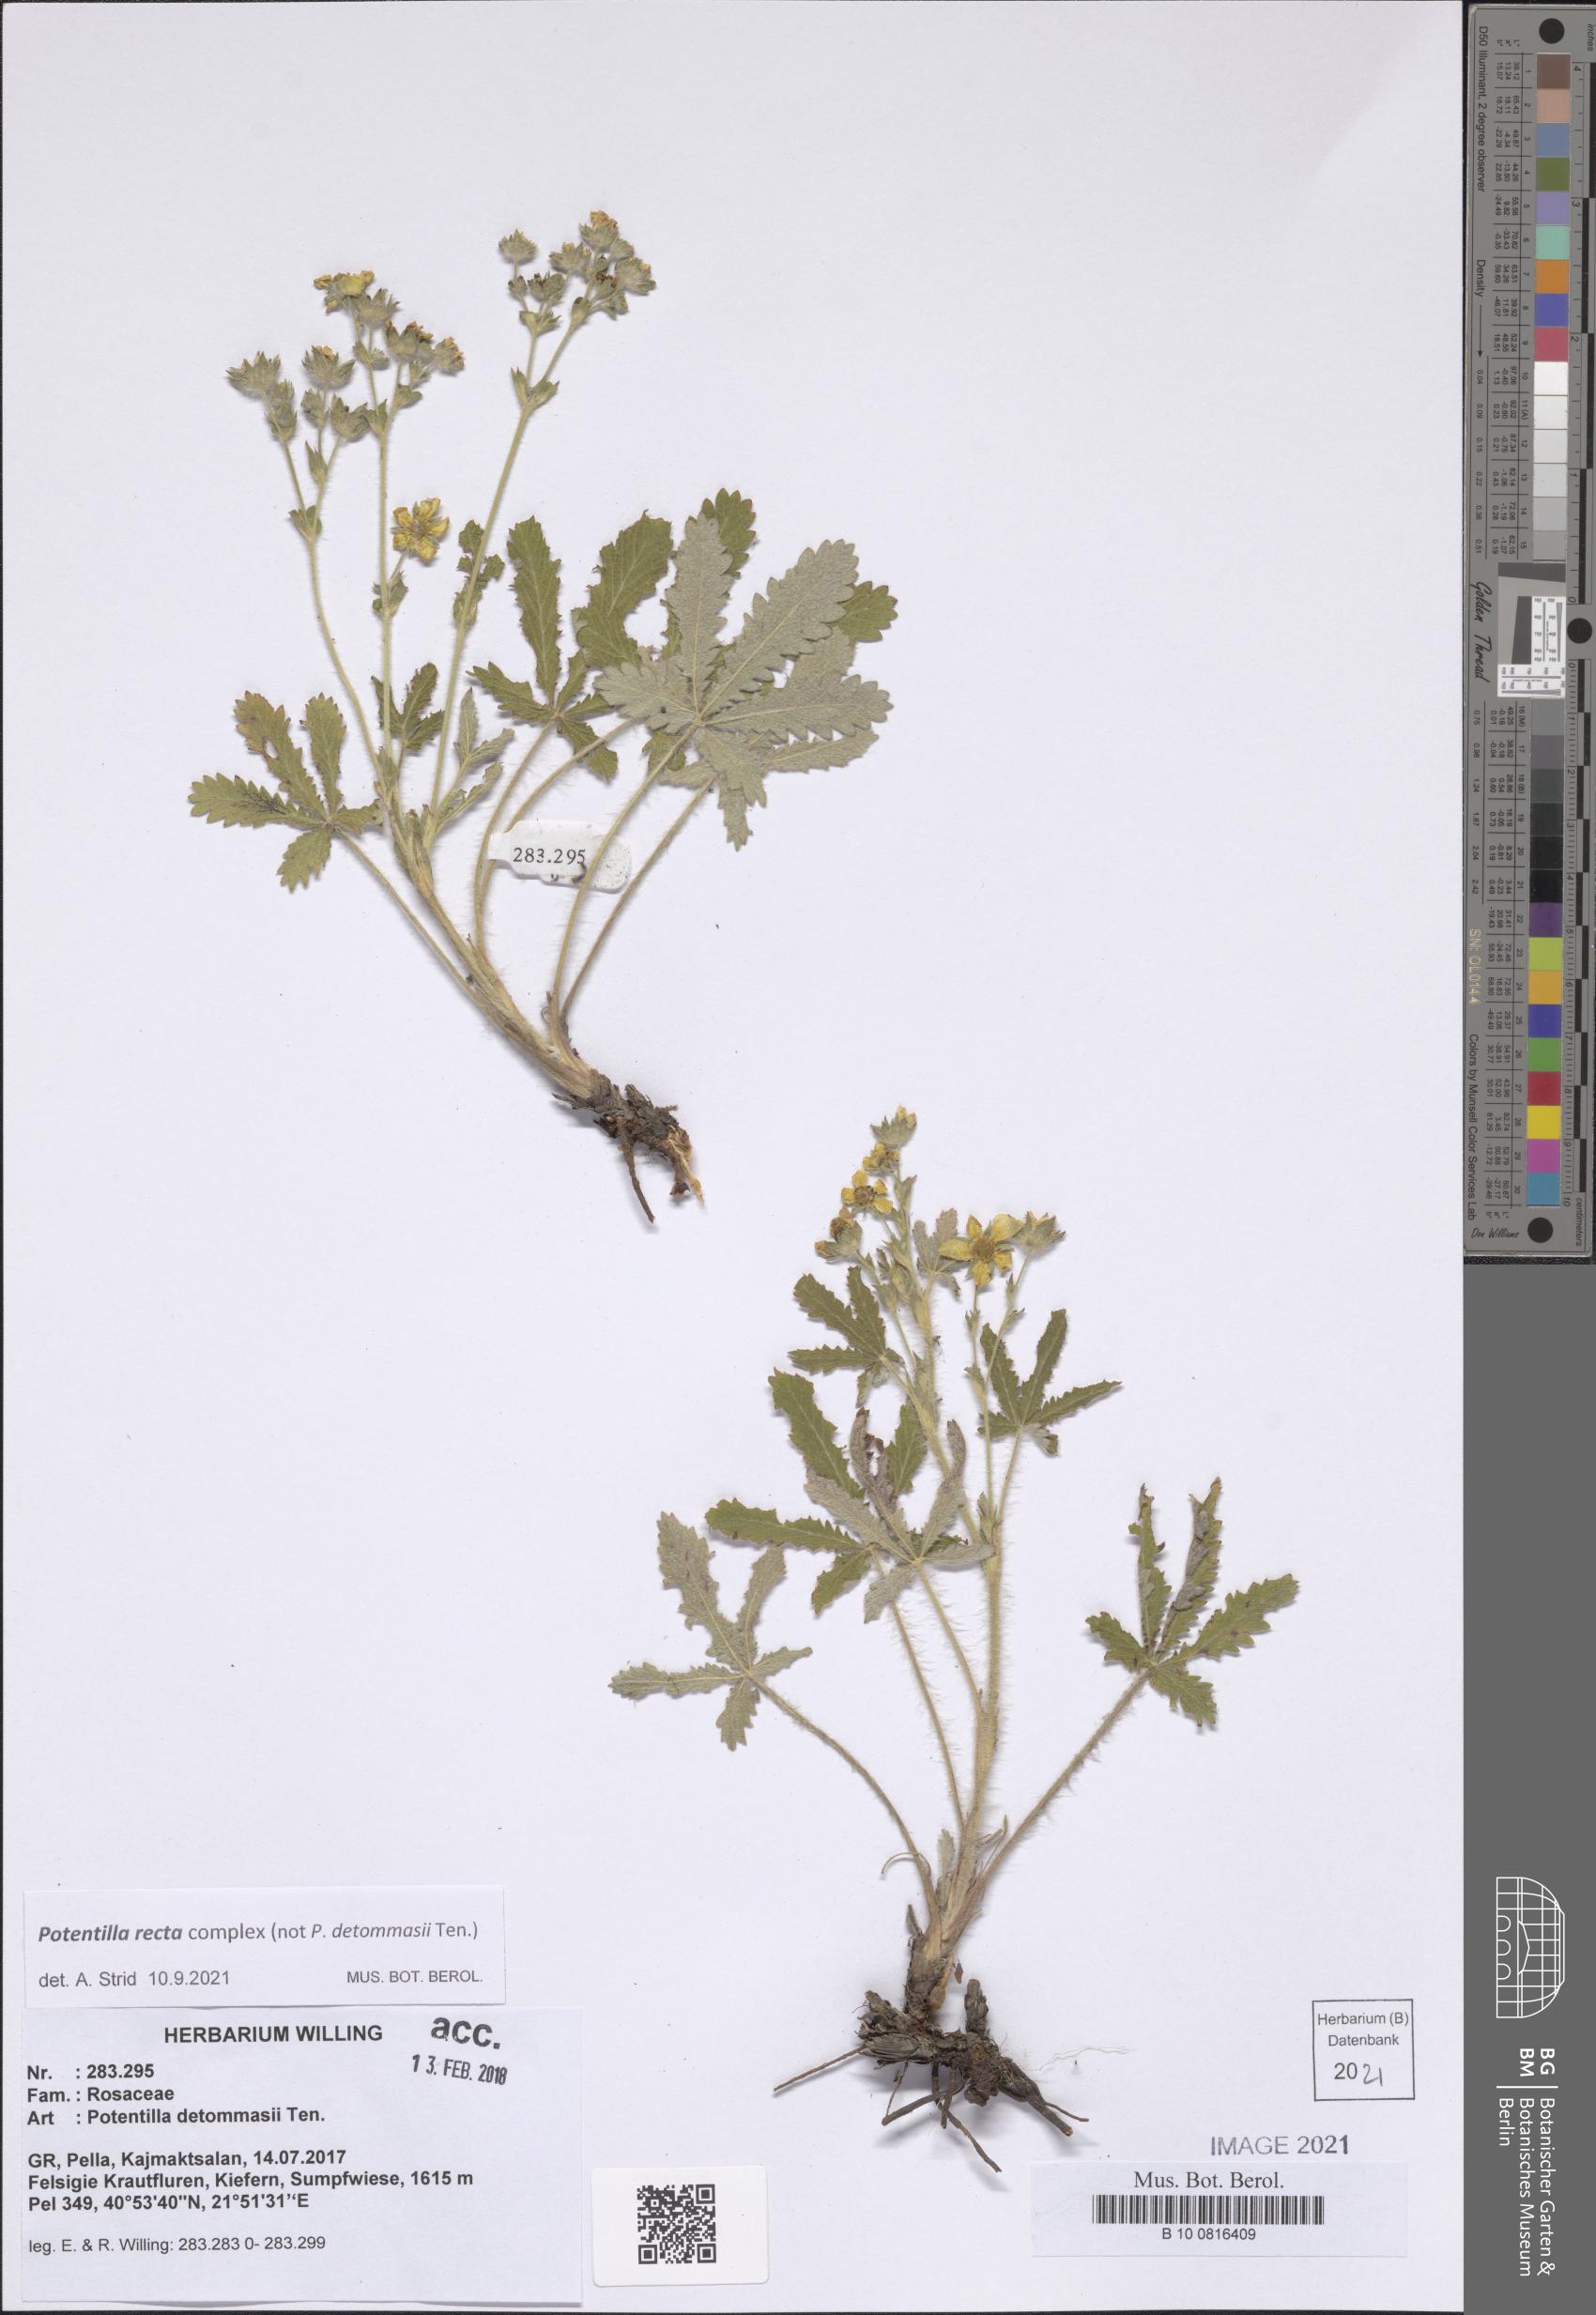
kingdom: Plantae
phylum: Tracheophyta
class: Magnoliopsida
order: Rosales
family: Rosaceae
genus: Potentilla
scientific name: Potentilla recta
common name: Sulphur cinquefoil
